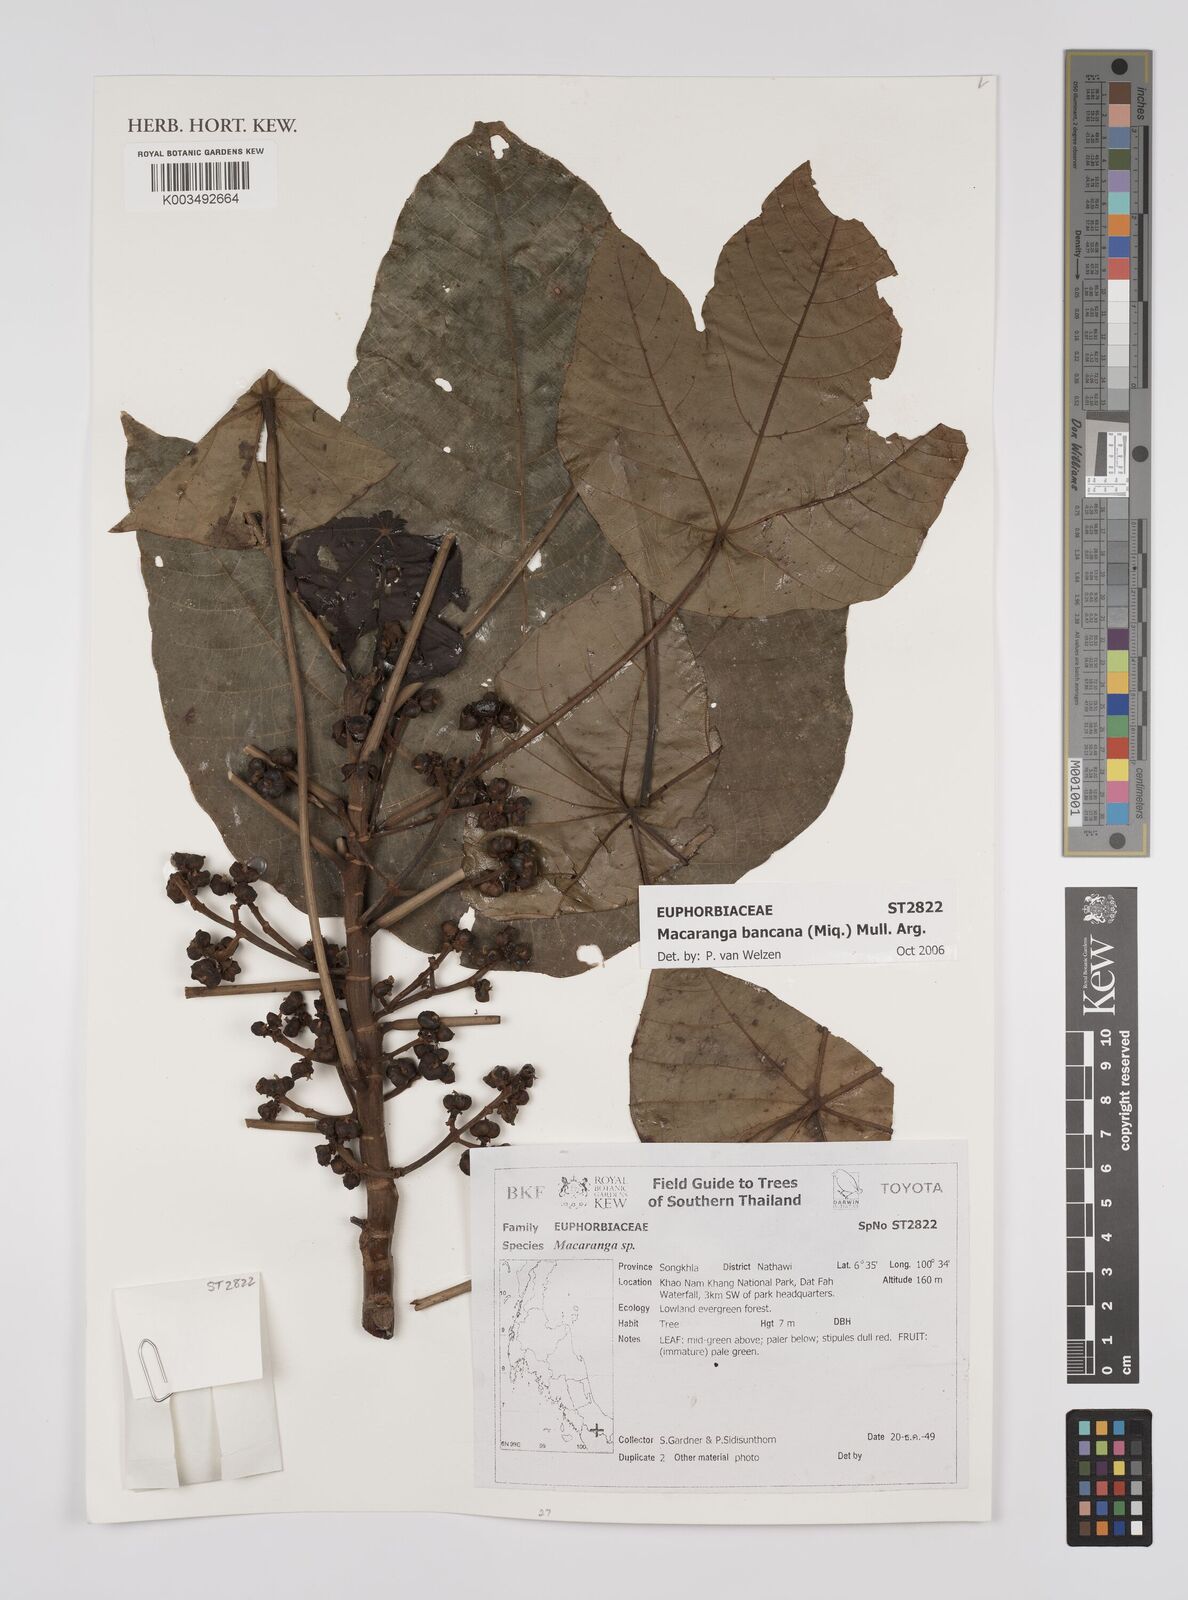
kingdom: Plantae
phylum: Tracheophyta
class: Magnoliopsida
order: Malpighiales
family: Euphorbiaceae
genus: Macaranga
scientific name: Macaranga bancana
